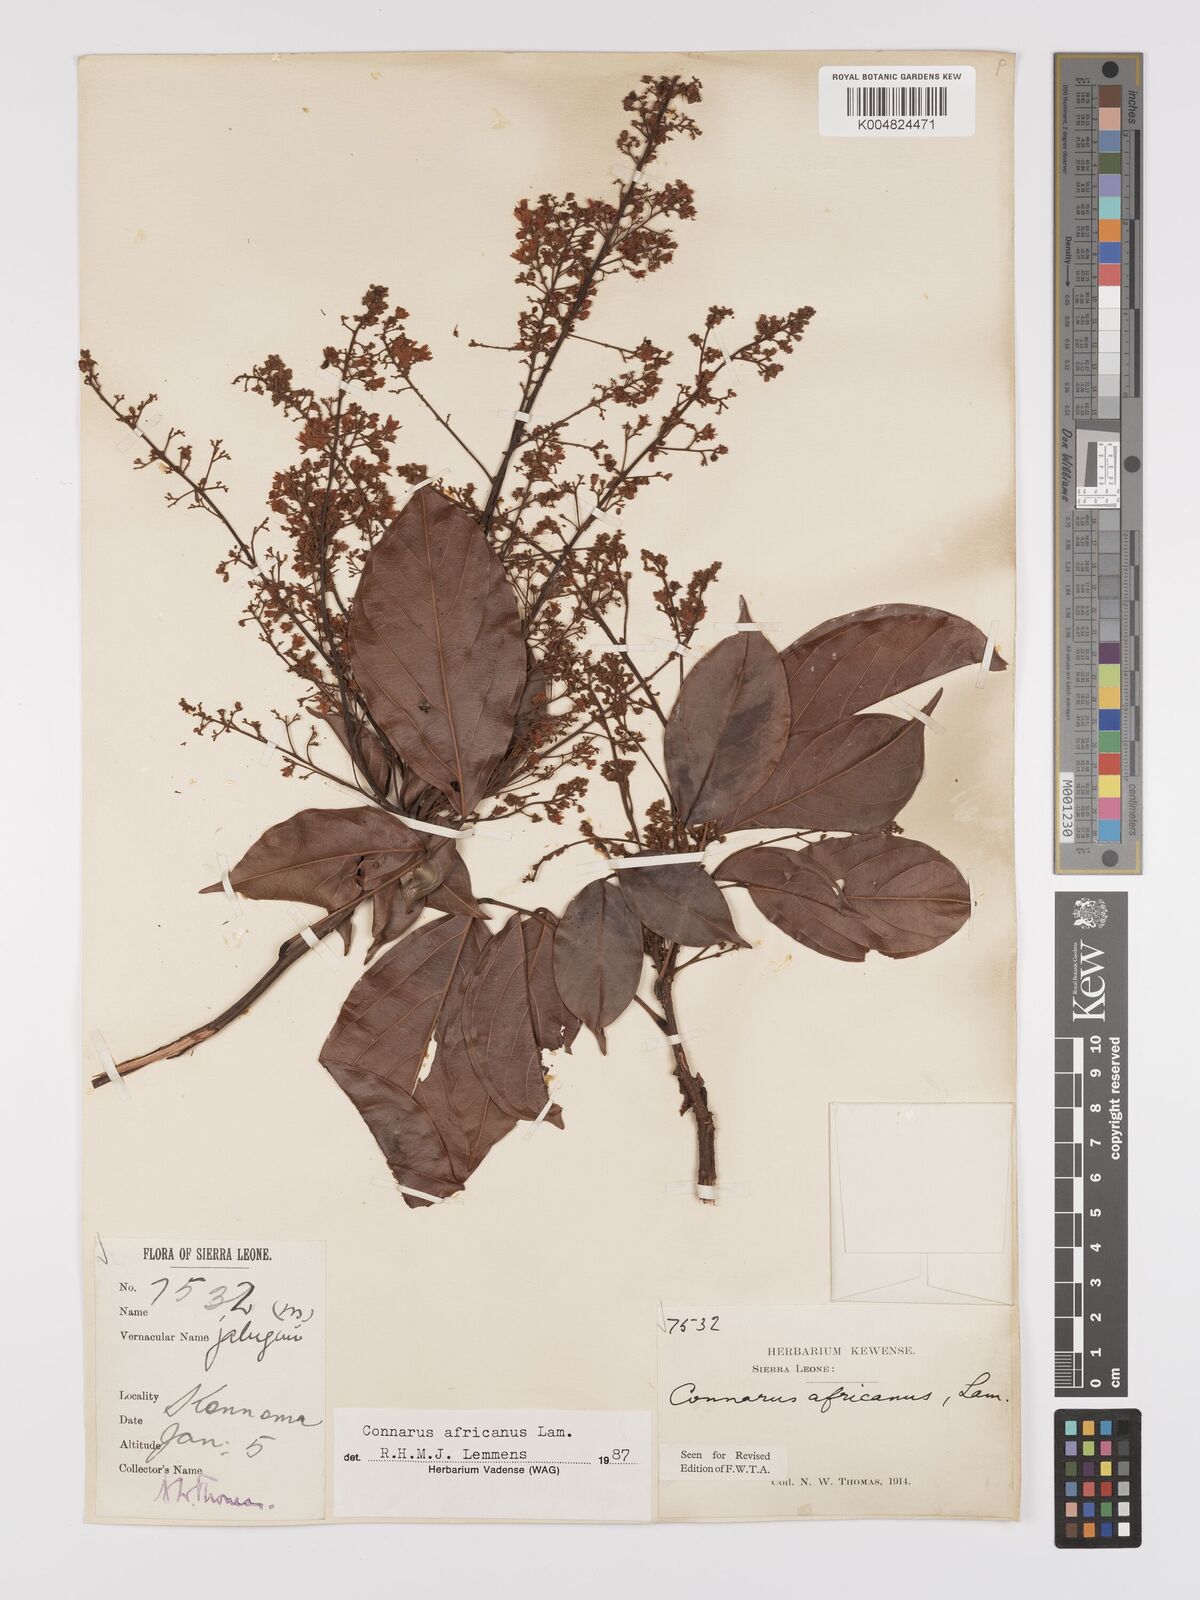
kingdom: Plantae
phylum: Tracheophyta
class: Magnoliopsida
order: Oxalidales
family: Connaraceae
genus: Connarus
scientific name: Connarus africanus
